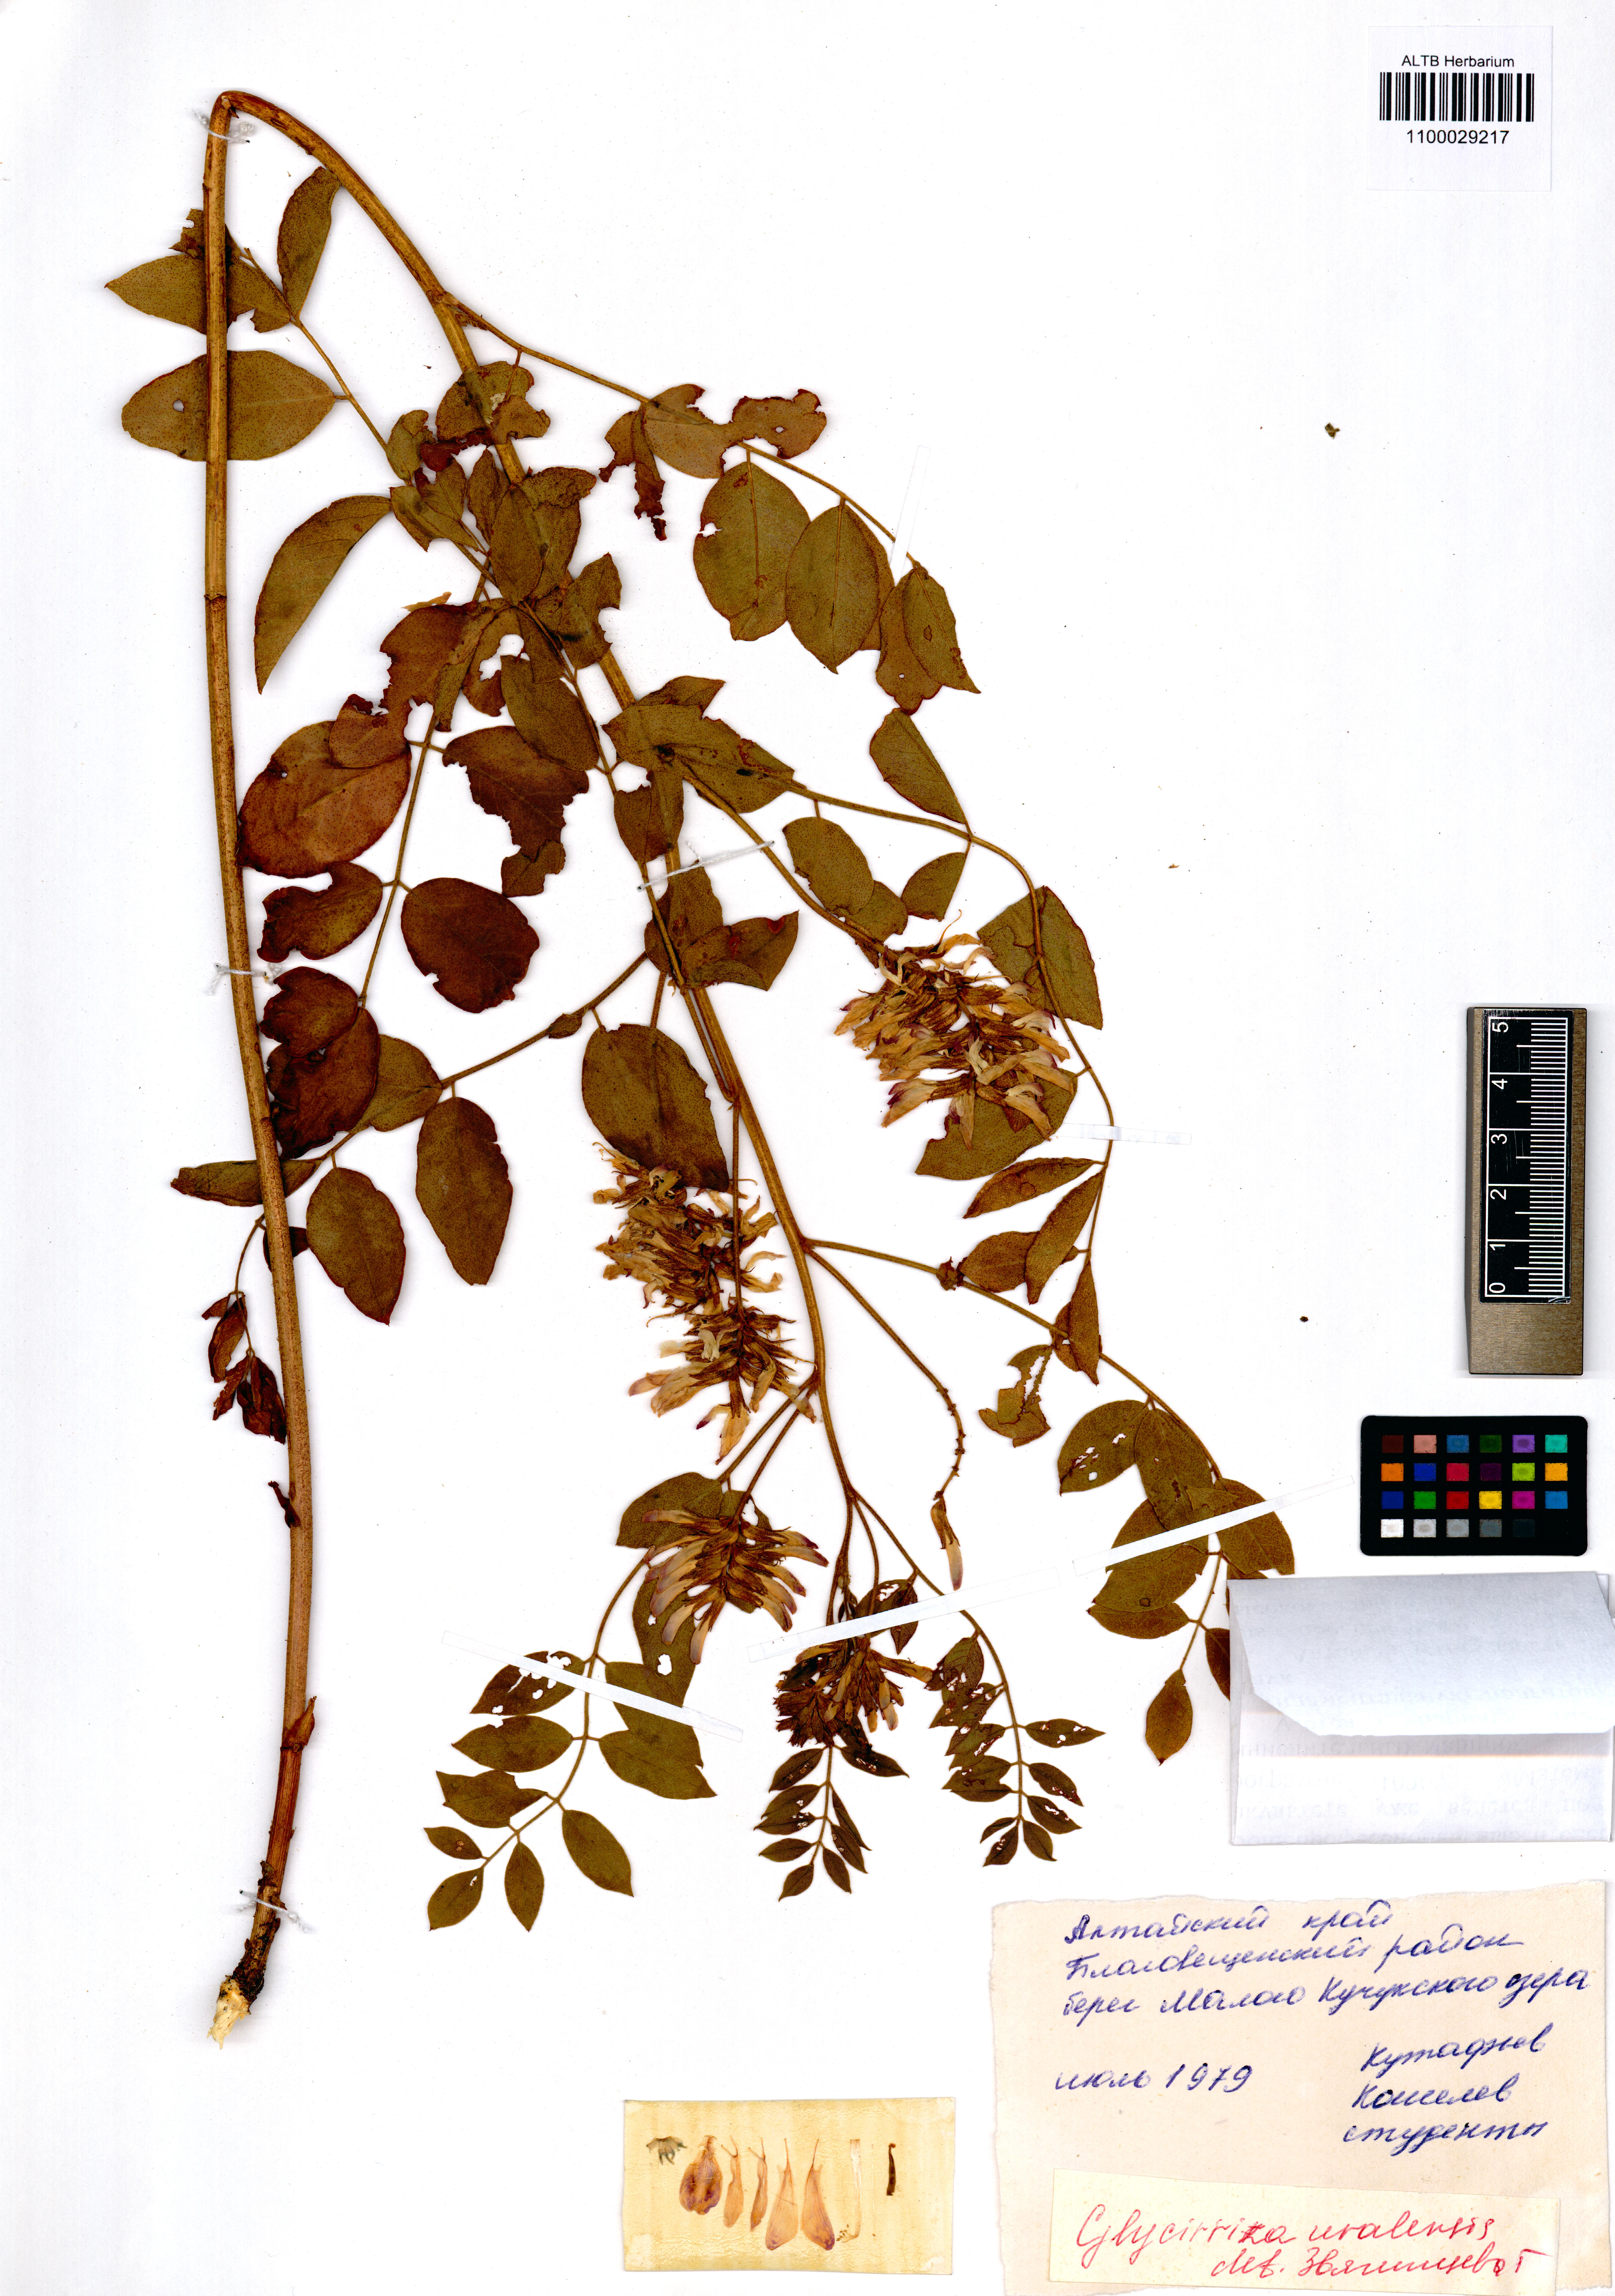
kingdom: Plantae
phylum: Tracheophyta
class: Magnoliopsida
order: Fabales
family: Fabaceae
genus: Glycyrrhiza
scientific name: Glycyrrhiza uralensis
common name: Chinese licorice
